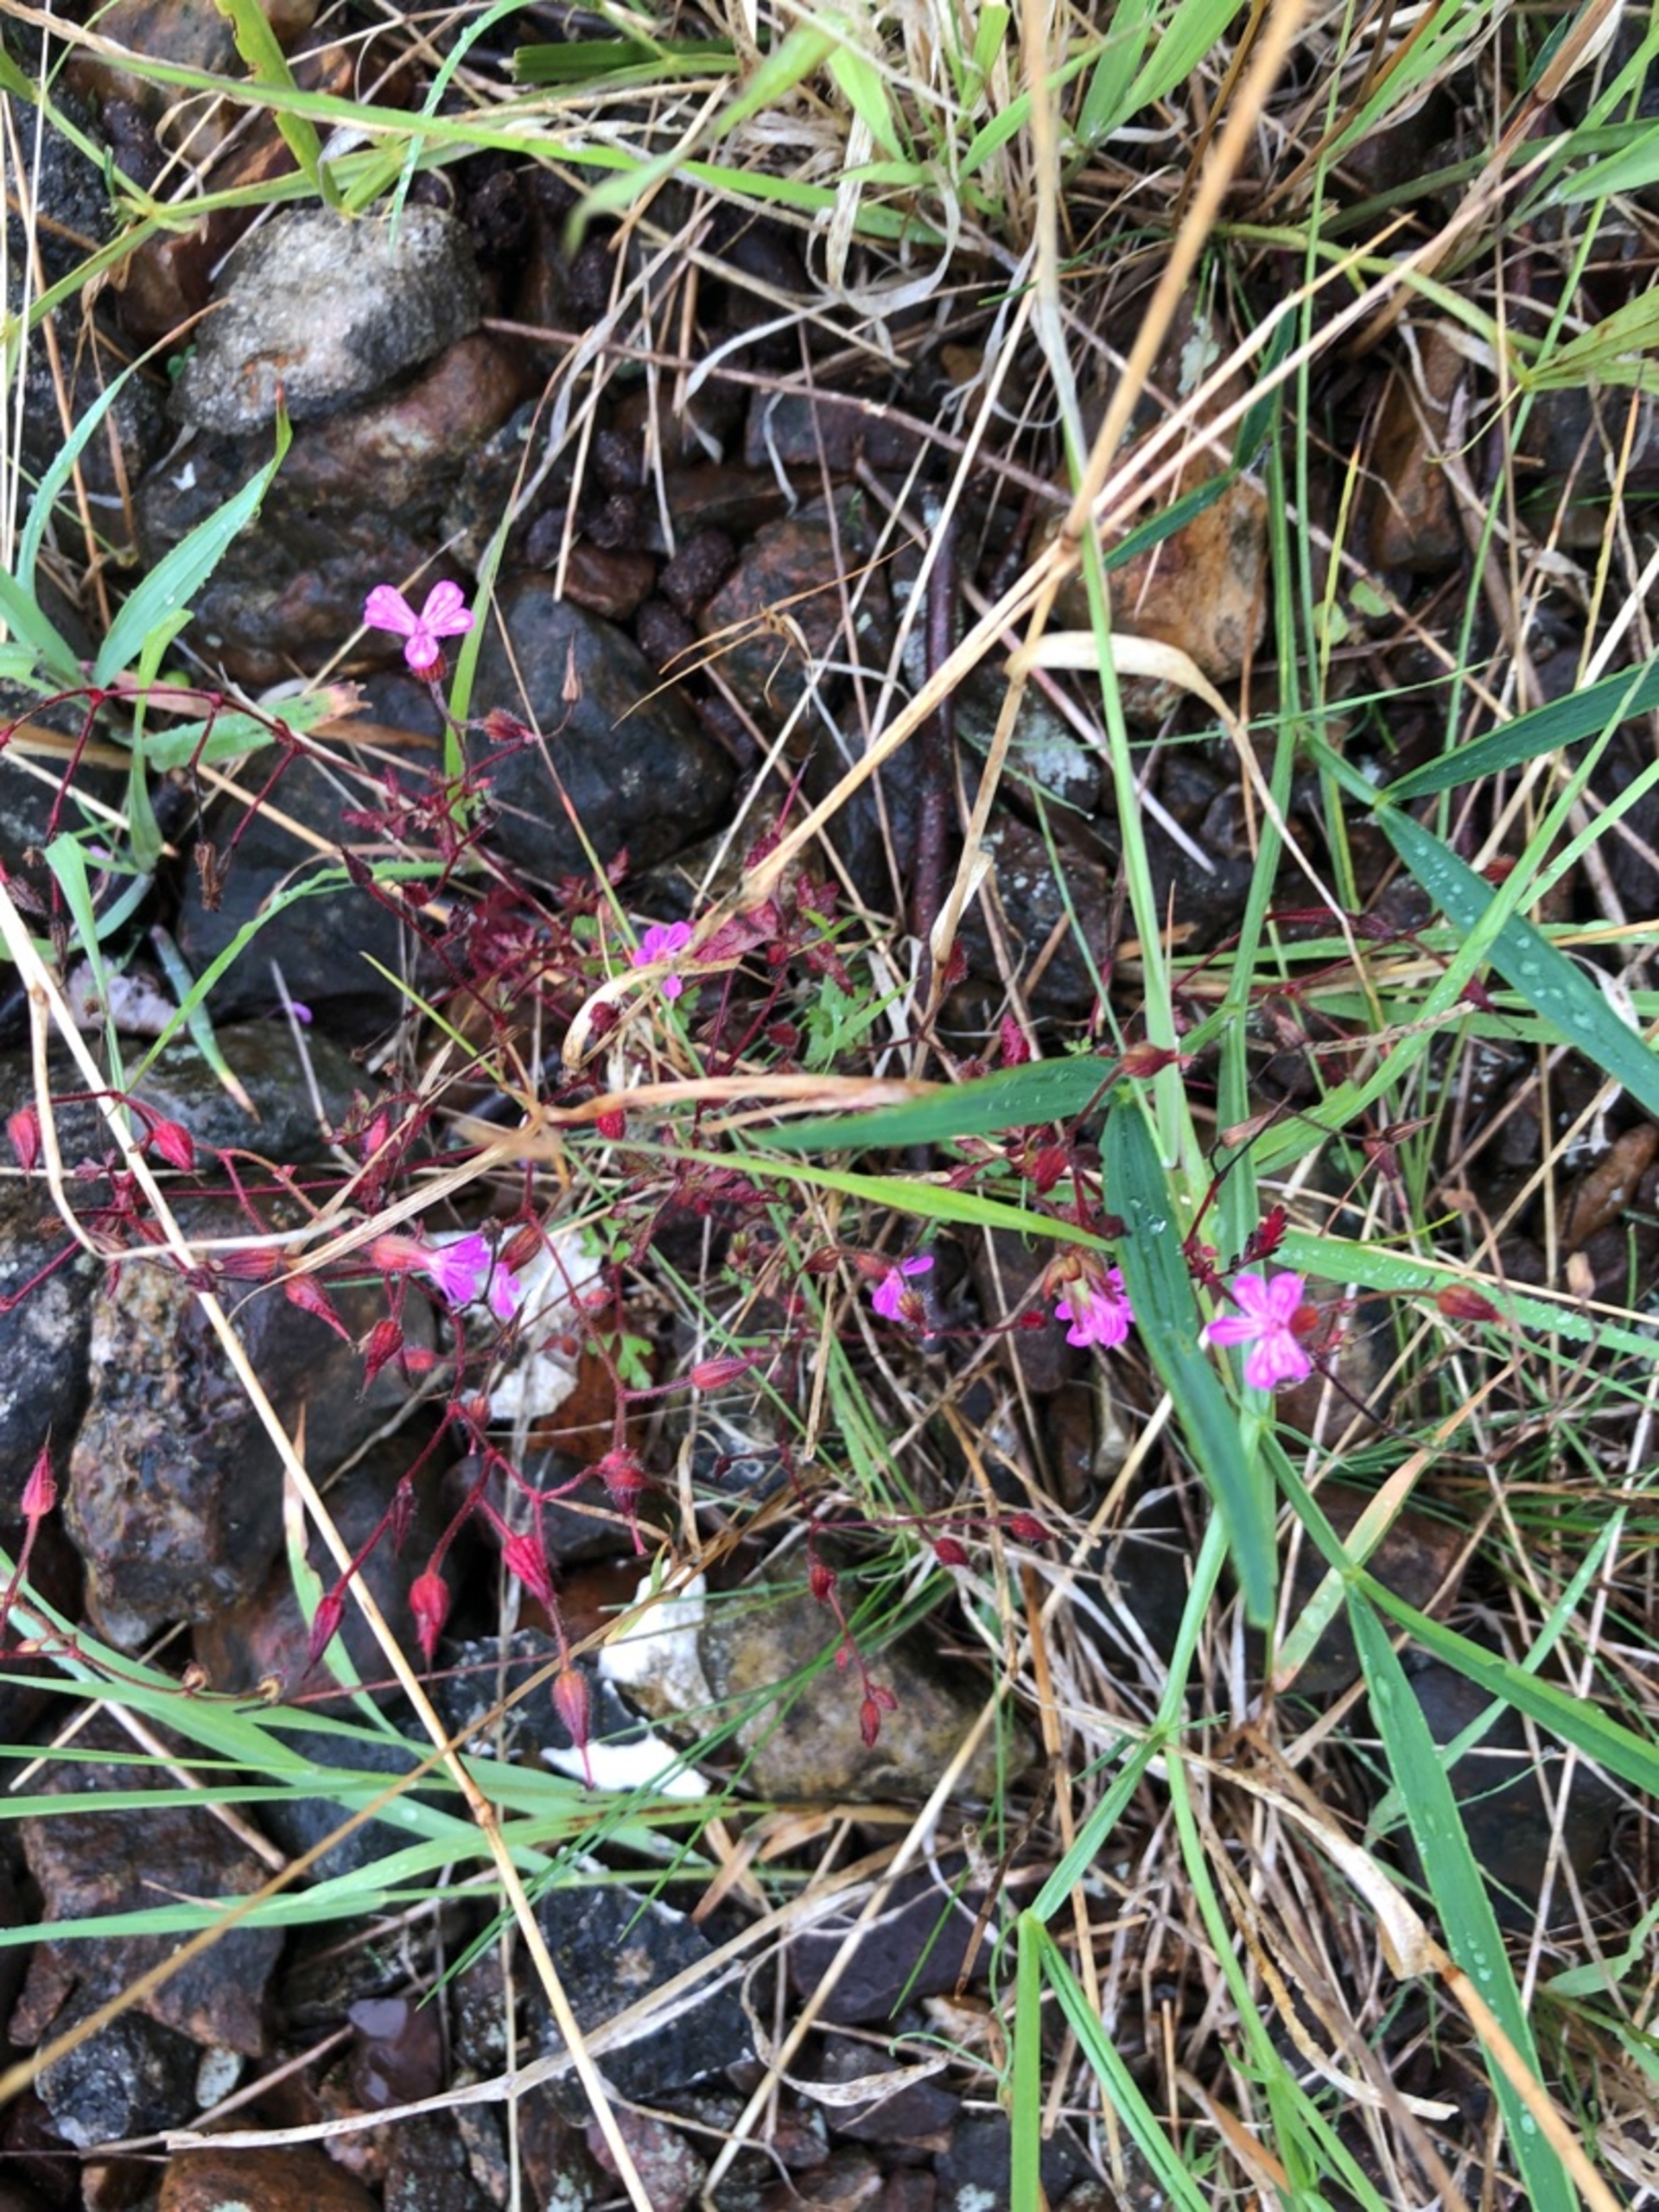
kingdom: Plantae
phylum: Tracheophyta
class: Magnoliopsida
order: Geraniales
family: Geraniaceae
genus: Geranium
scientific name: Geranium robertianum
